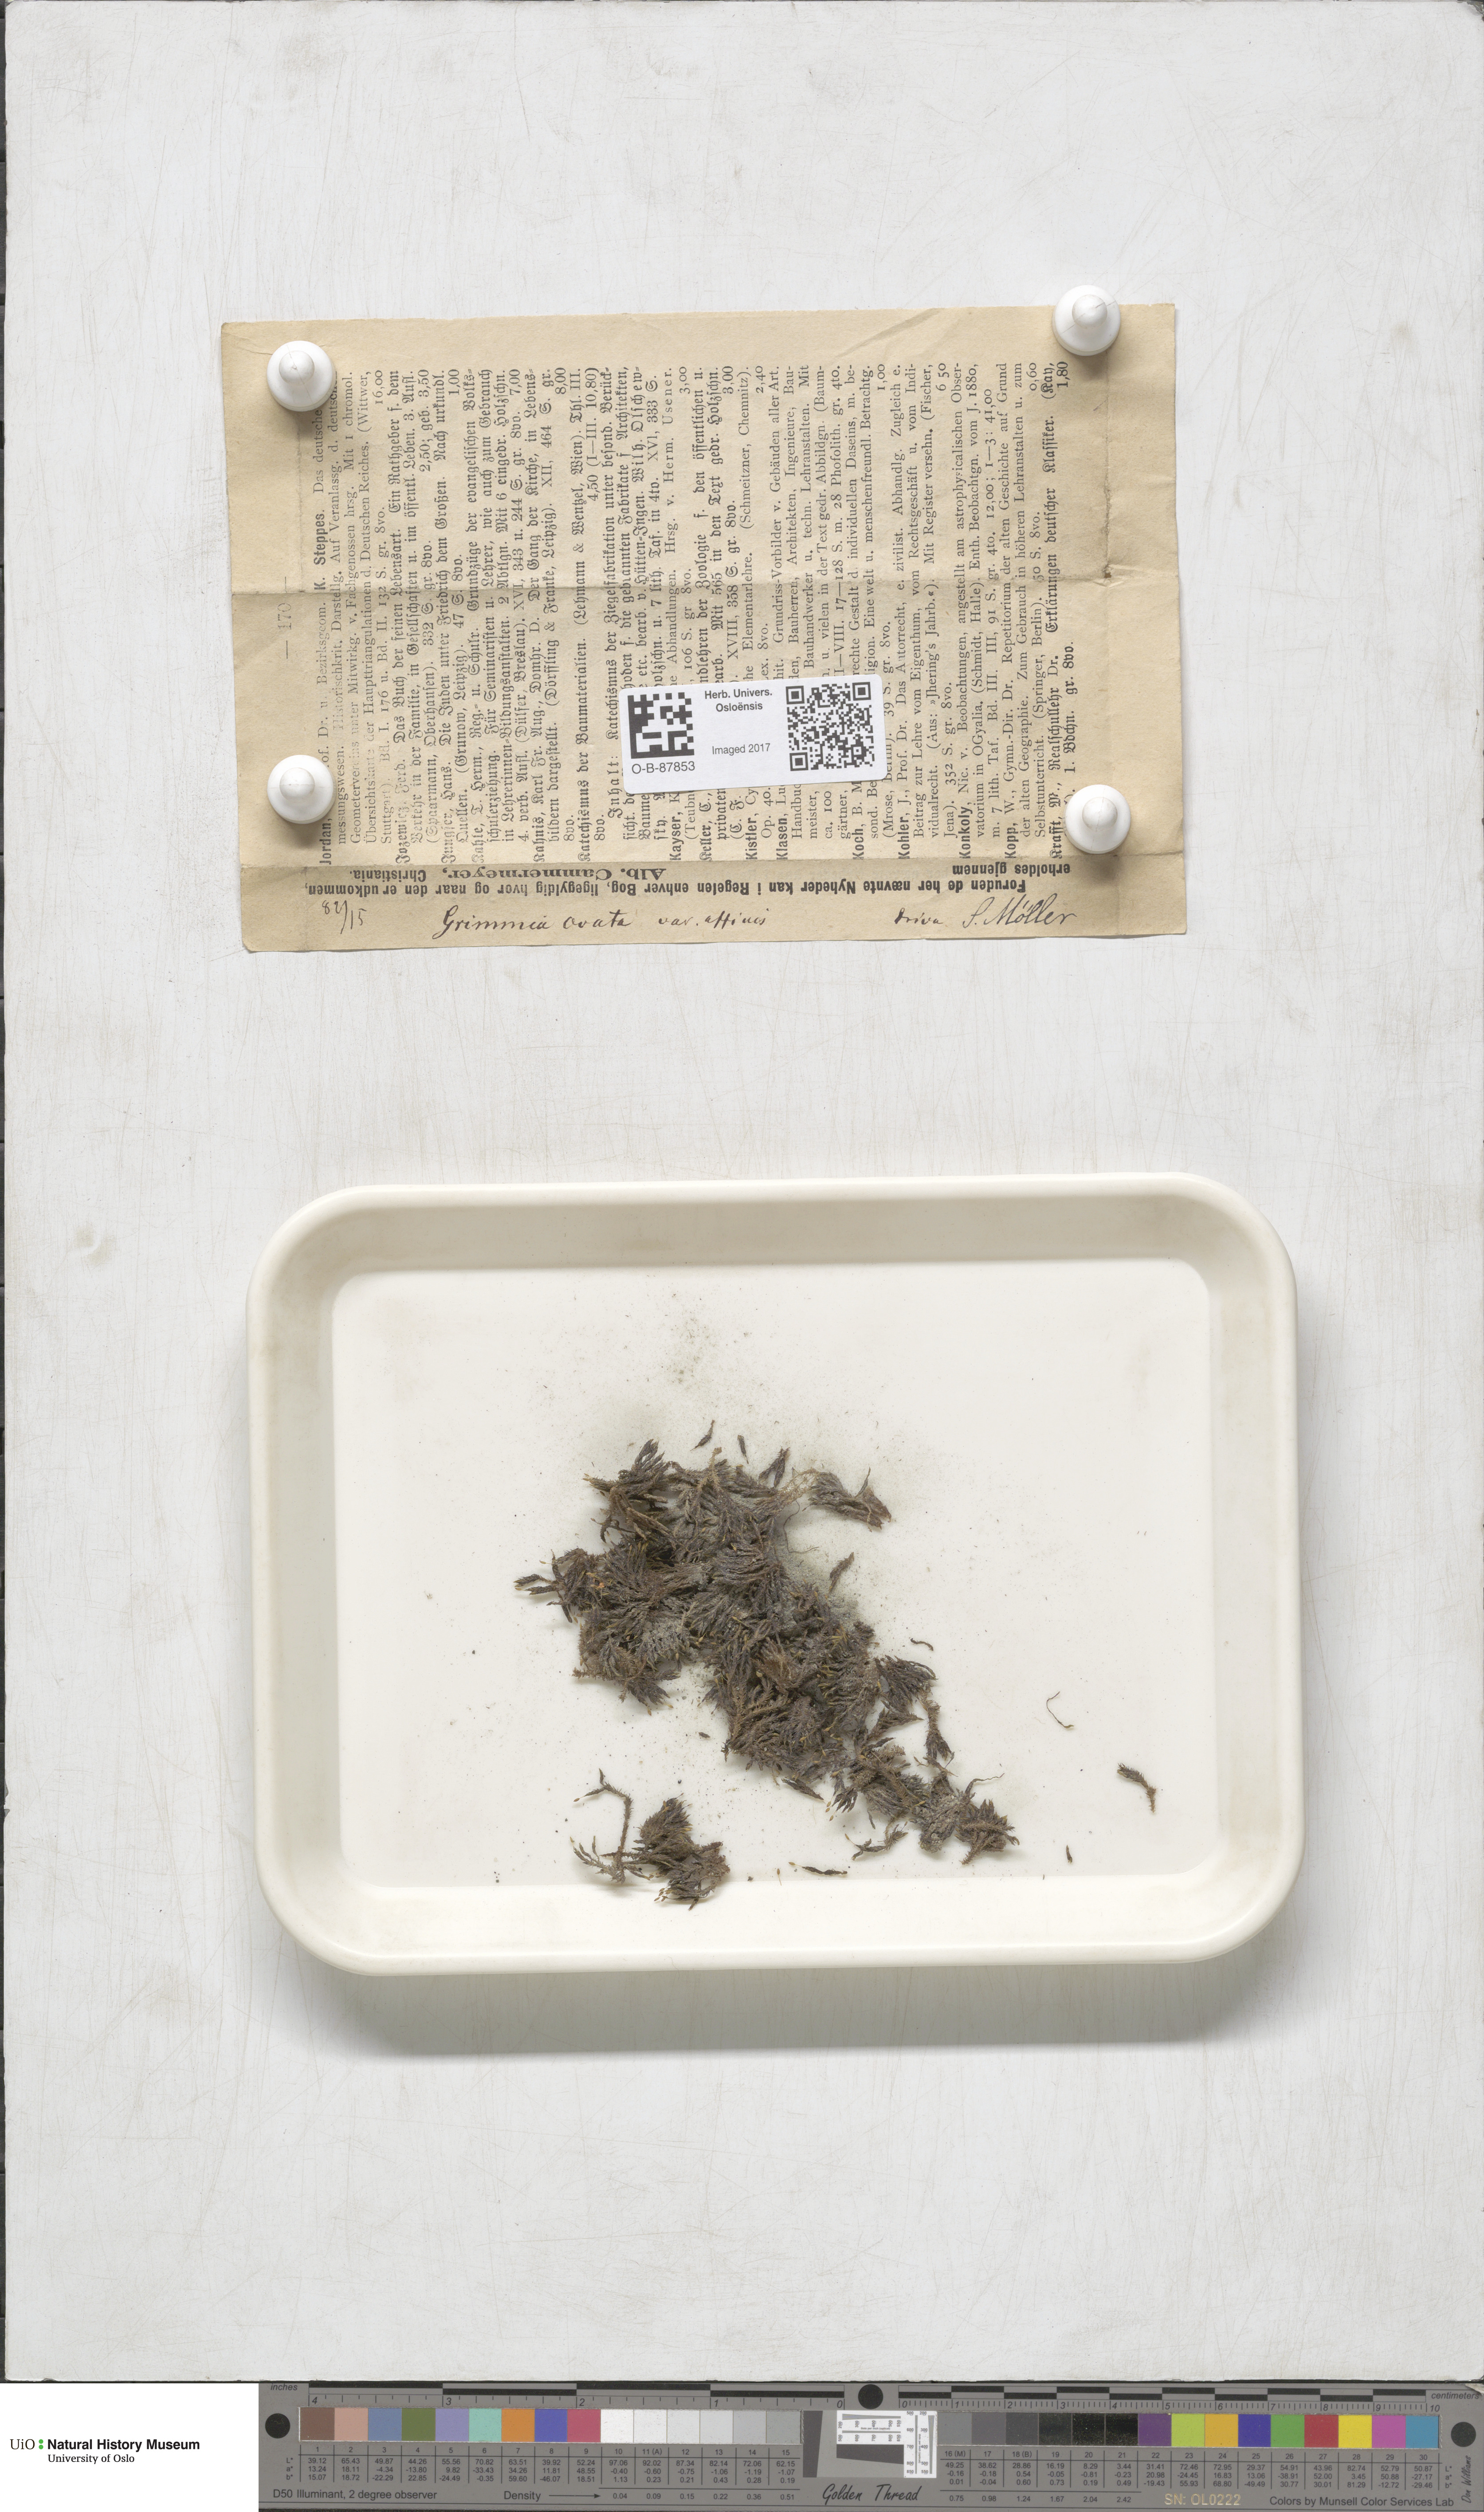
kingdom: Plantae
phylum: Bryophyta
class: Bryopsida
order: Grimmiales
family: Grimmiaceae
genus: Grimmia
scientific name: Grimmia ovalis
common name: Oval grimmia
